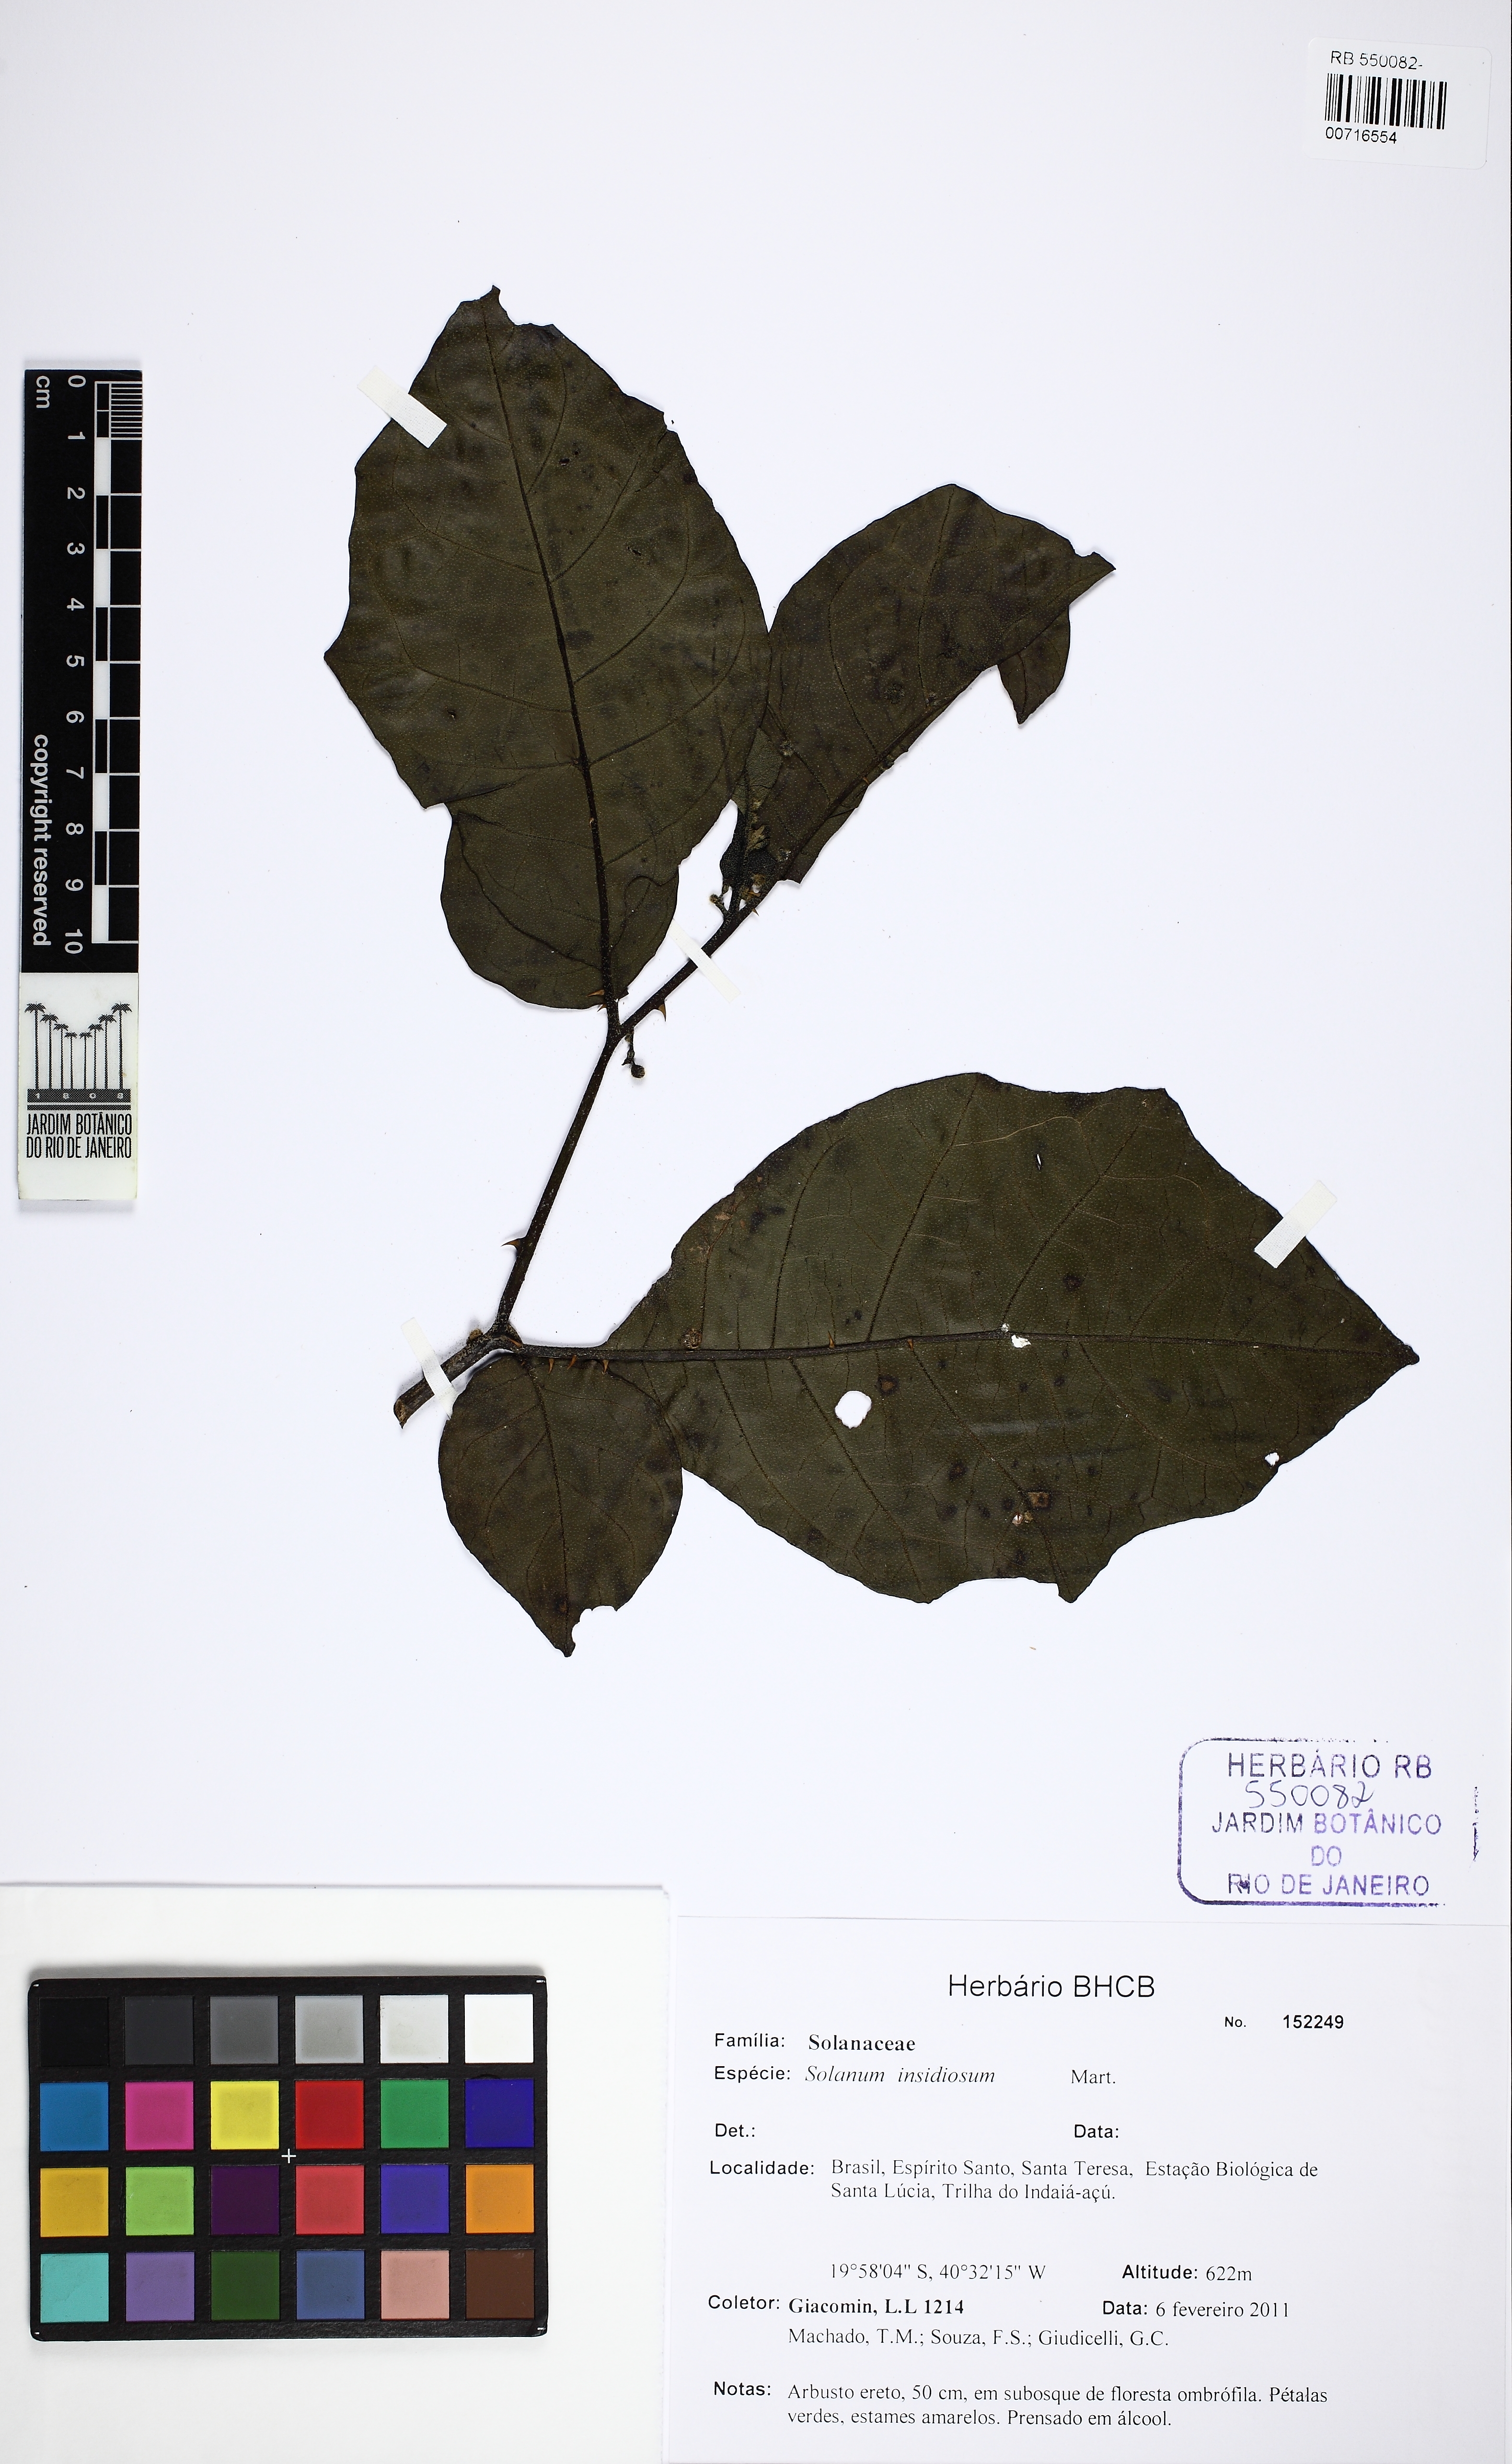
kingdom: Plantae
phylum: Tracheophyta
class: Magnoliopsida
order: Solanales
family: Solanaceae
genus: Solanum
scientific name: Solanum insidiosum
